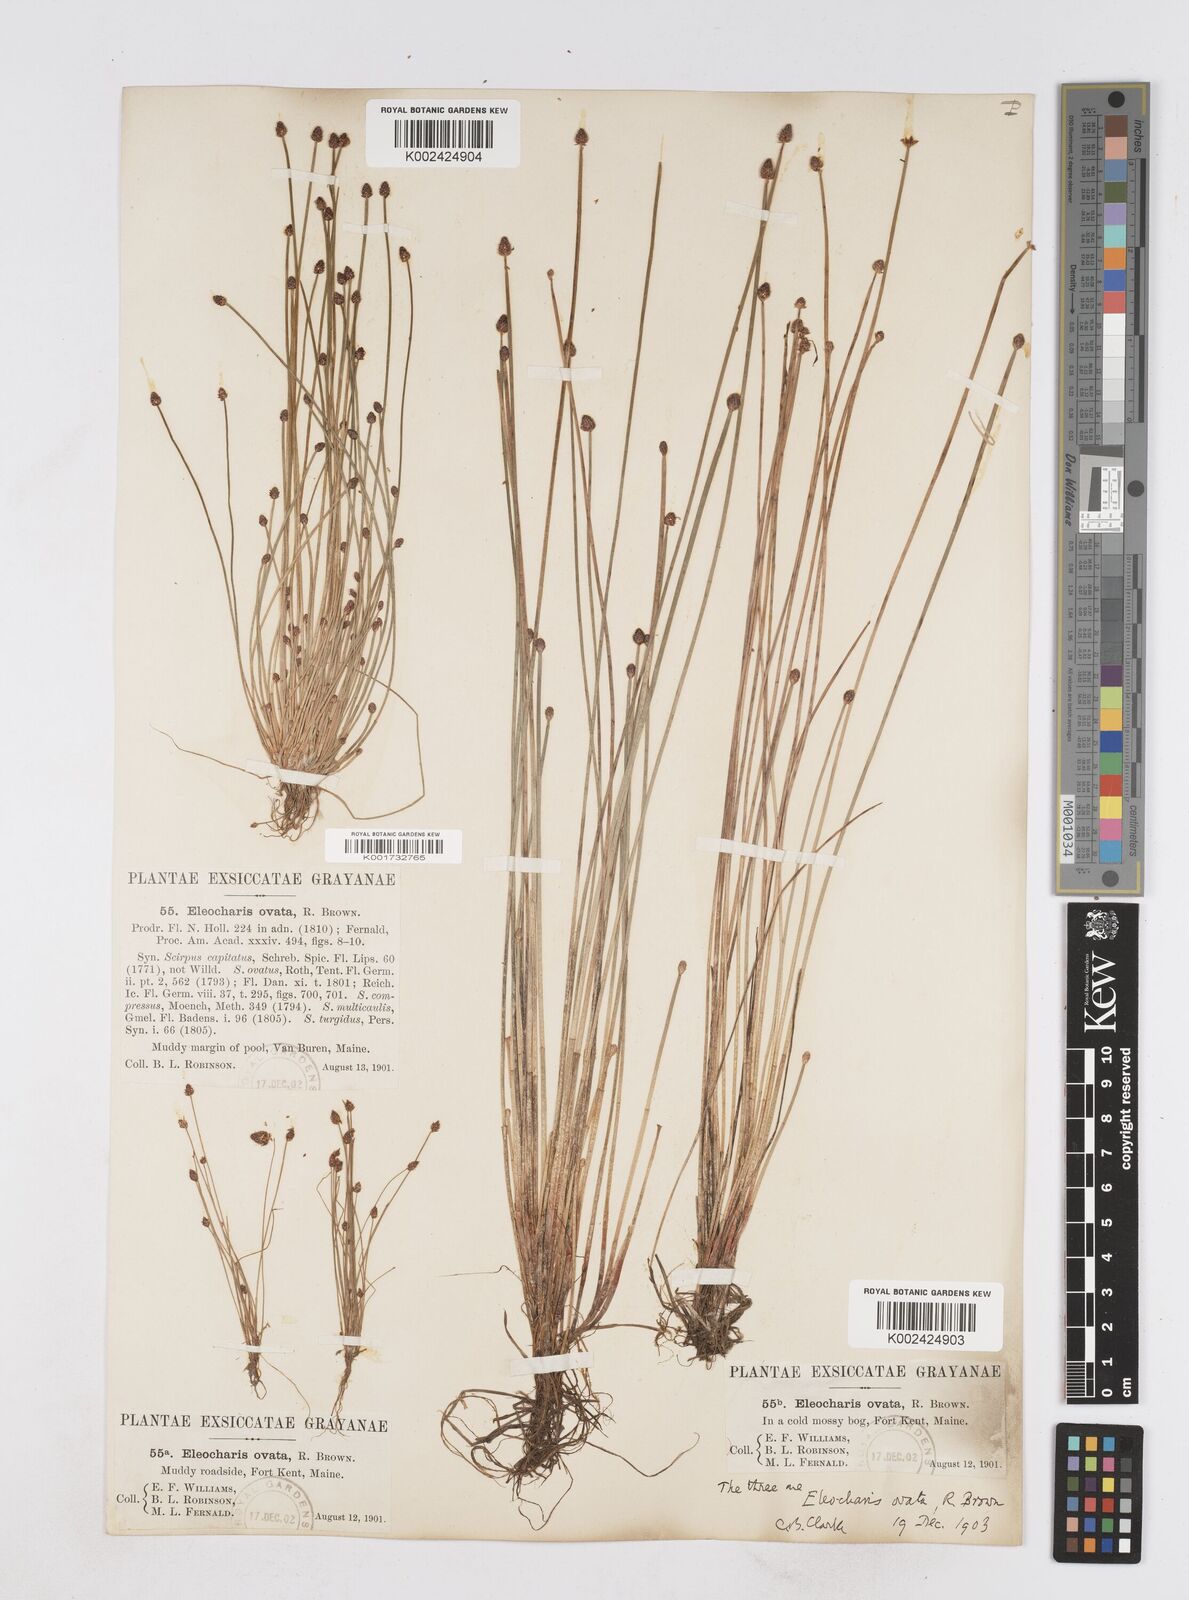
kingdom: Plantae
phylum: Tracheophyta
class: Liliopsida
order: Poales
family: Cyperaceae
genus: Eleocharis
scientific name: Eleocharis ovata
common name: Oval spike-rush
